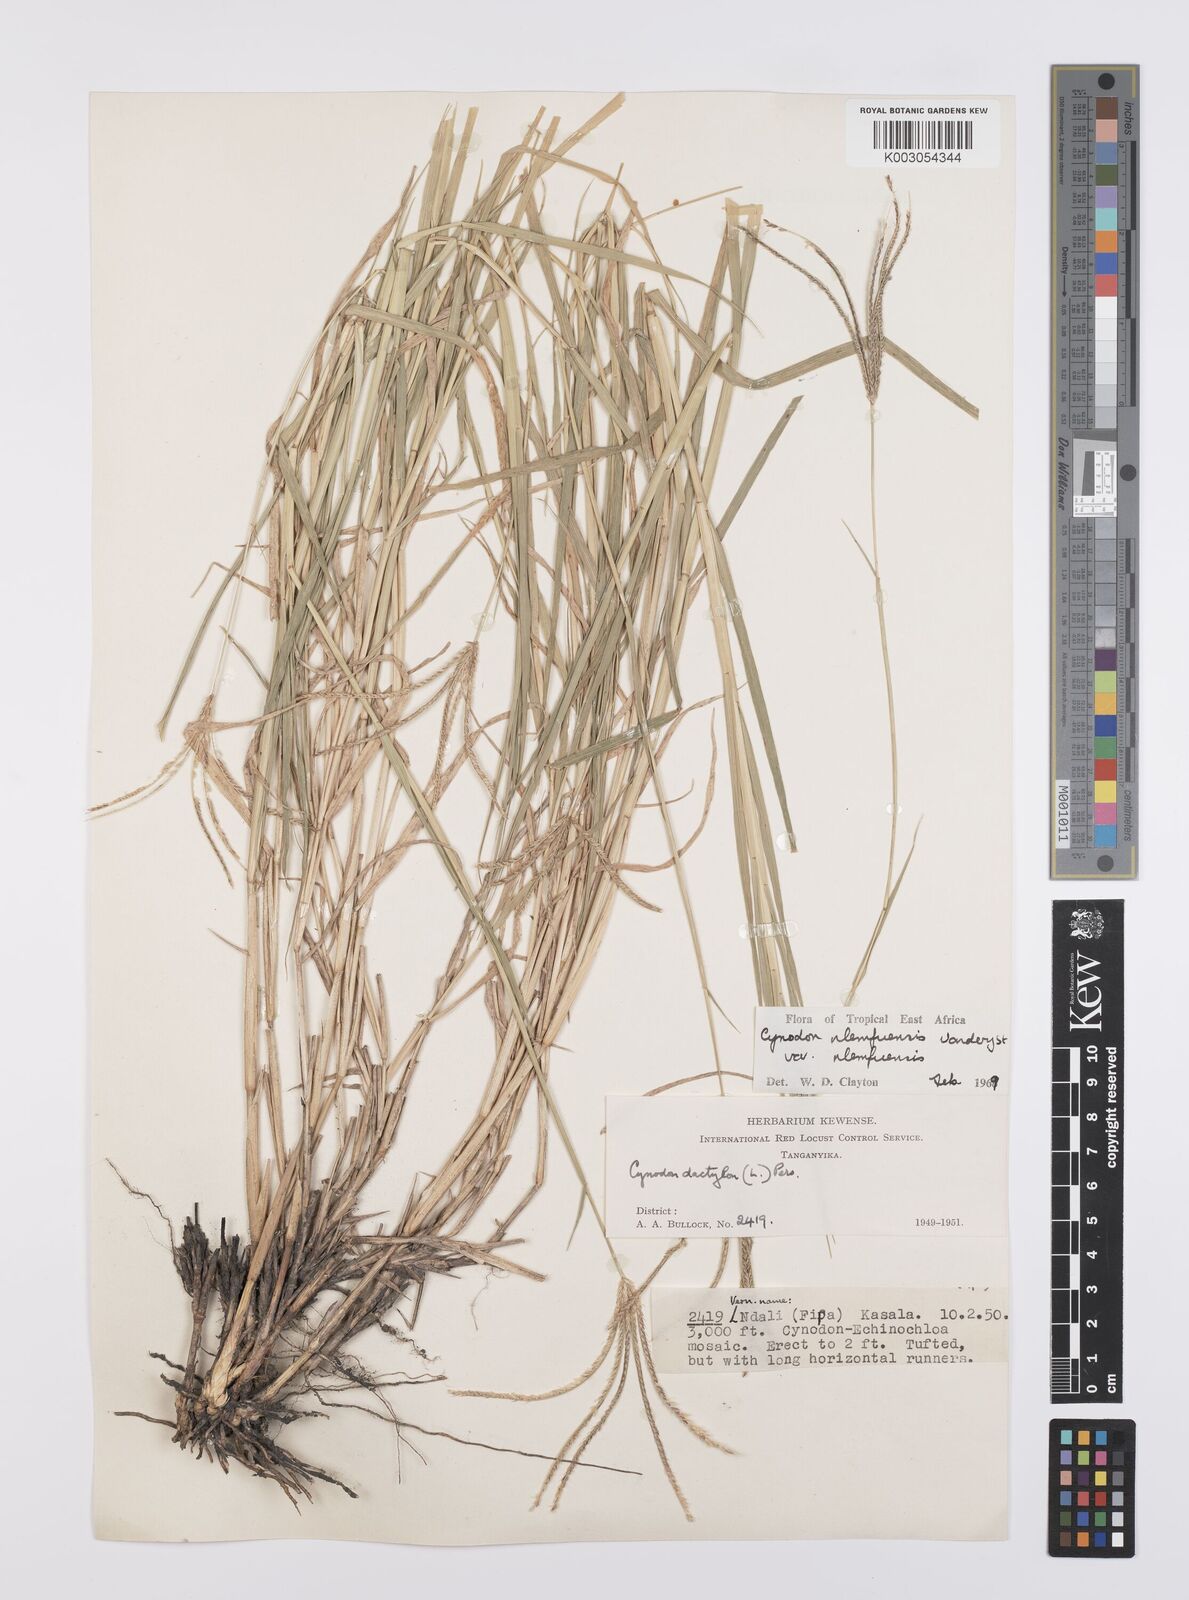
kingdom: Plantae
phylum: Tracheophyta
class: Liliopsida
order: Poales
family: Poaceae
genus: Cynodon
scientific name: Cynodon nlemfuensis
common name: African bermudagrass
